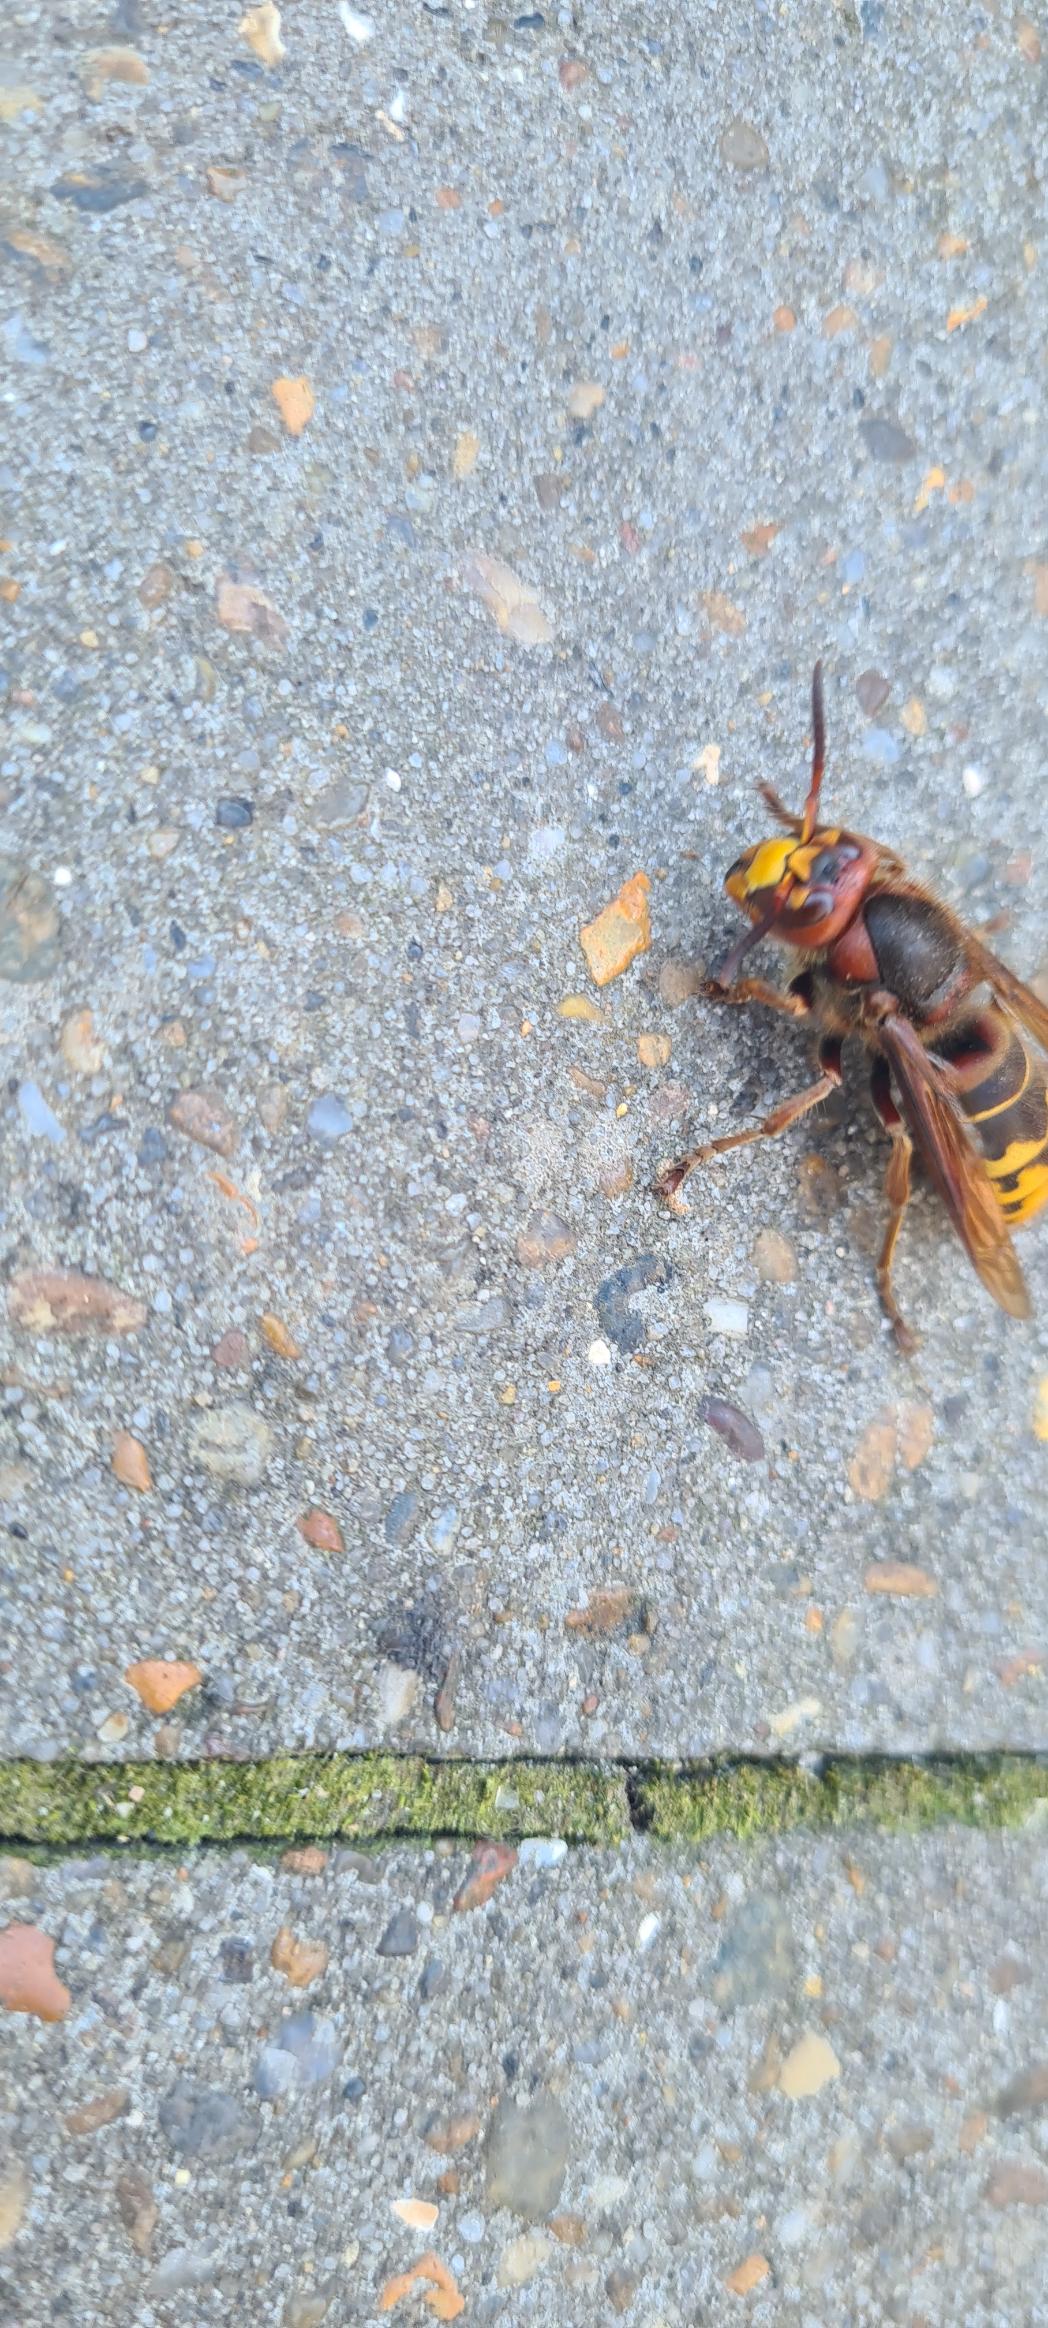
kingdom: Animalia
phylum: Arthropoda
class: Insecta
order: Hymenoptera
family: Vespidae
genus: Vespa
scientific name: Vespa crabro
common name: Stor gedehams
